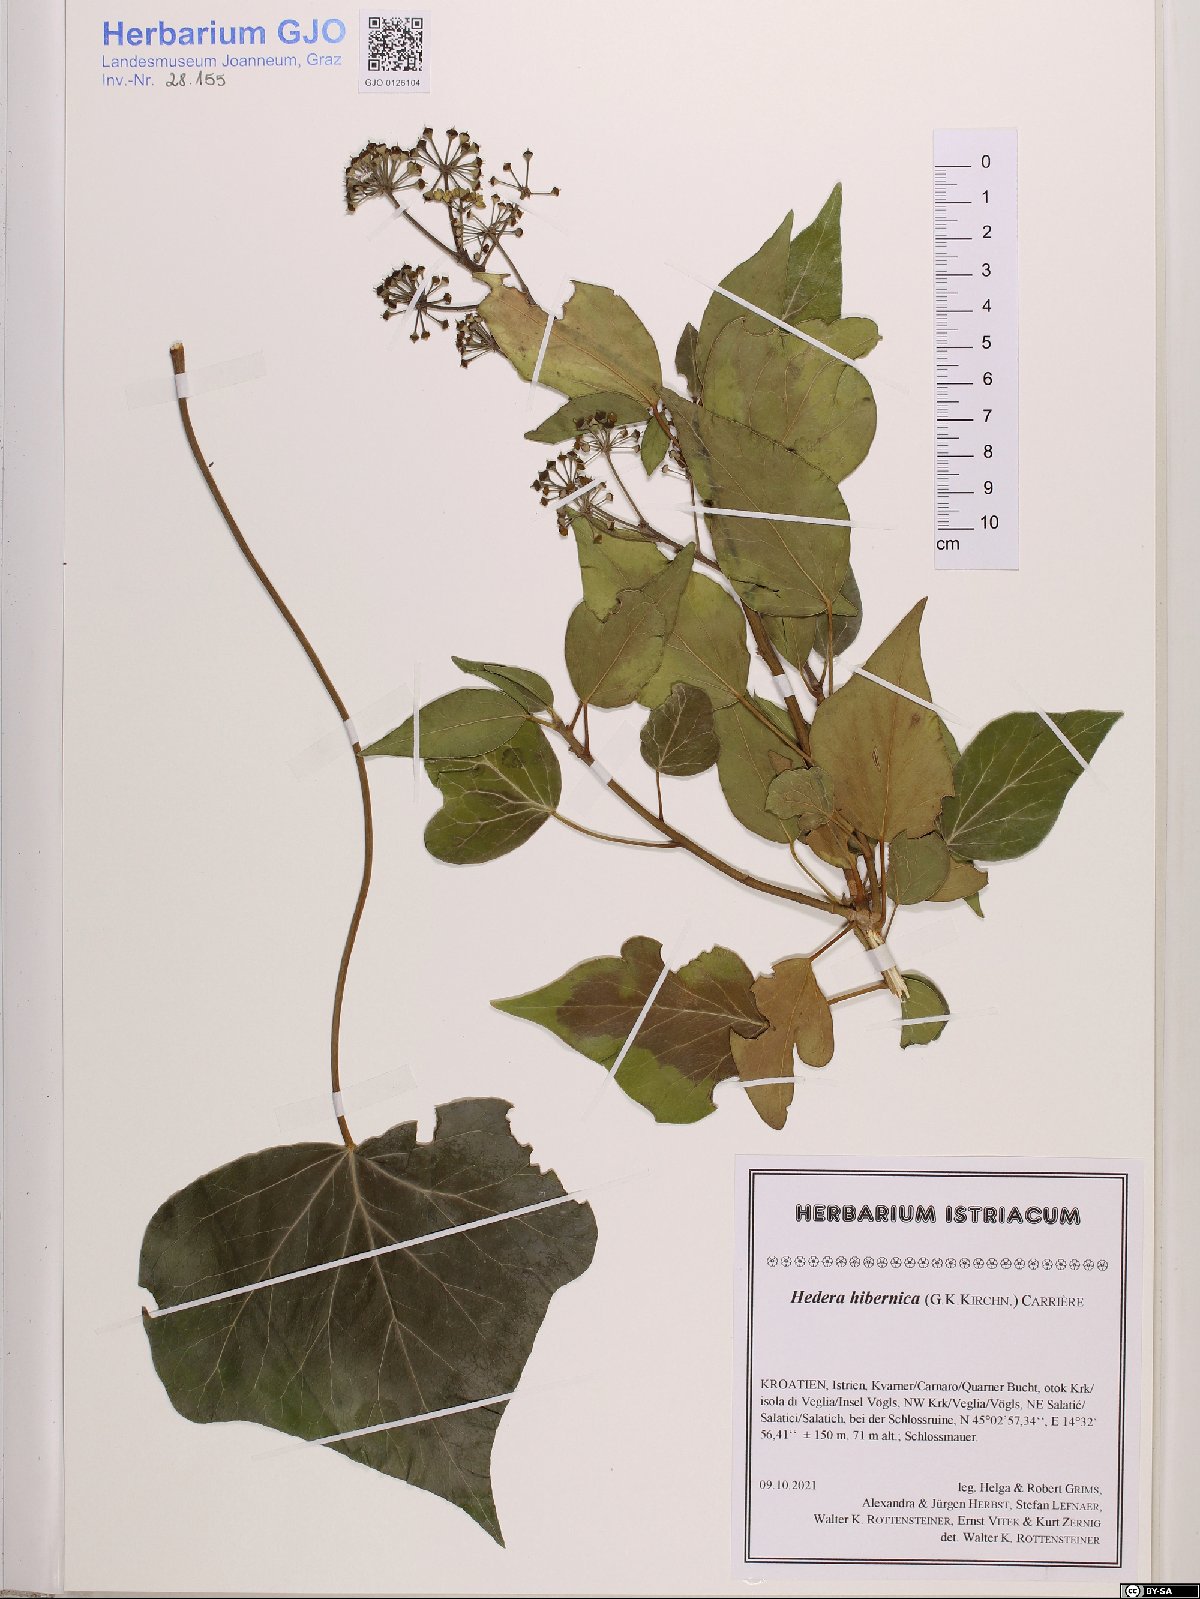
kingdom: Plantae
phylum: Tracheophyta
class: Magnoliopsida
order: Apiales
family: Araliaceae
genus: Hedera
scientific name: Hedera hibernica
